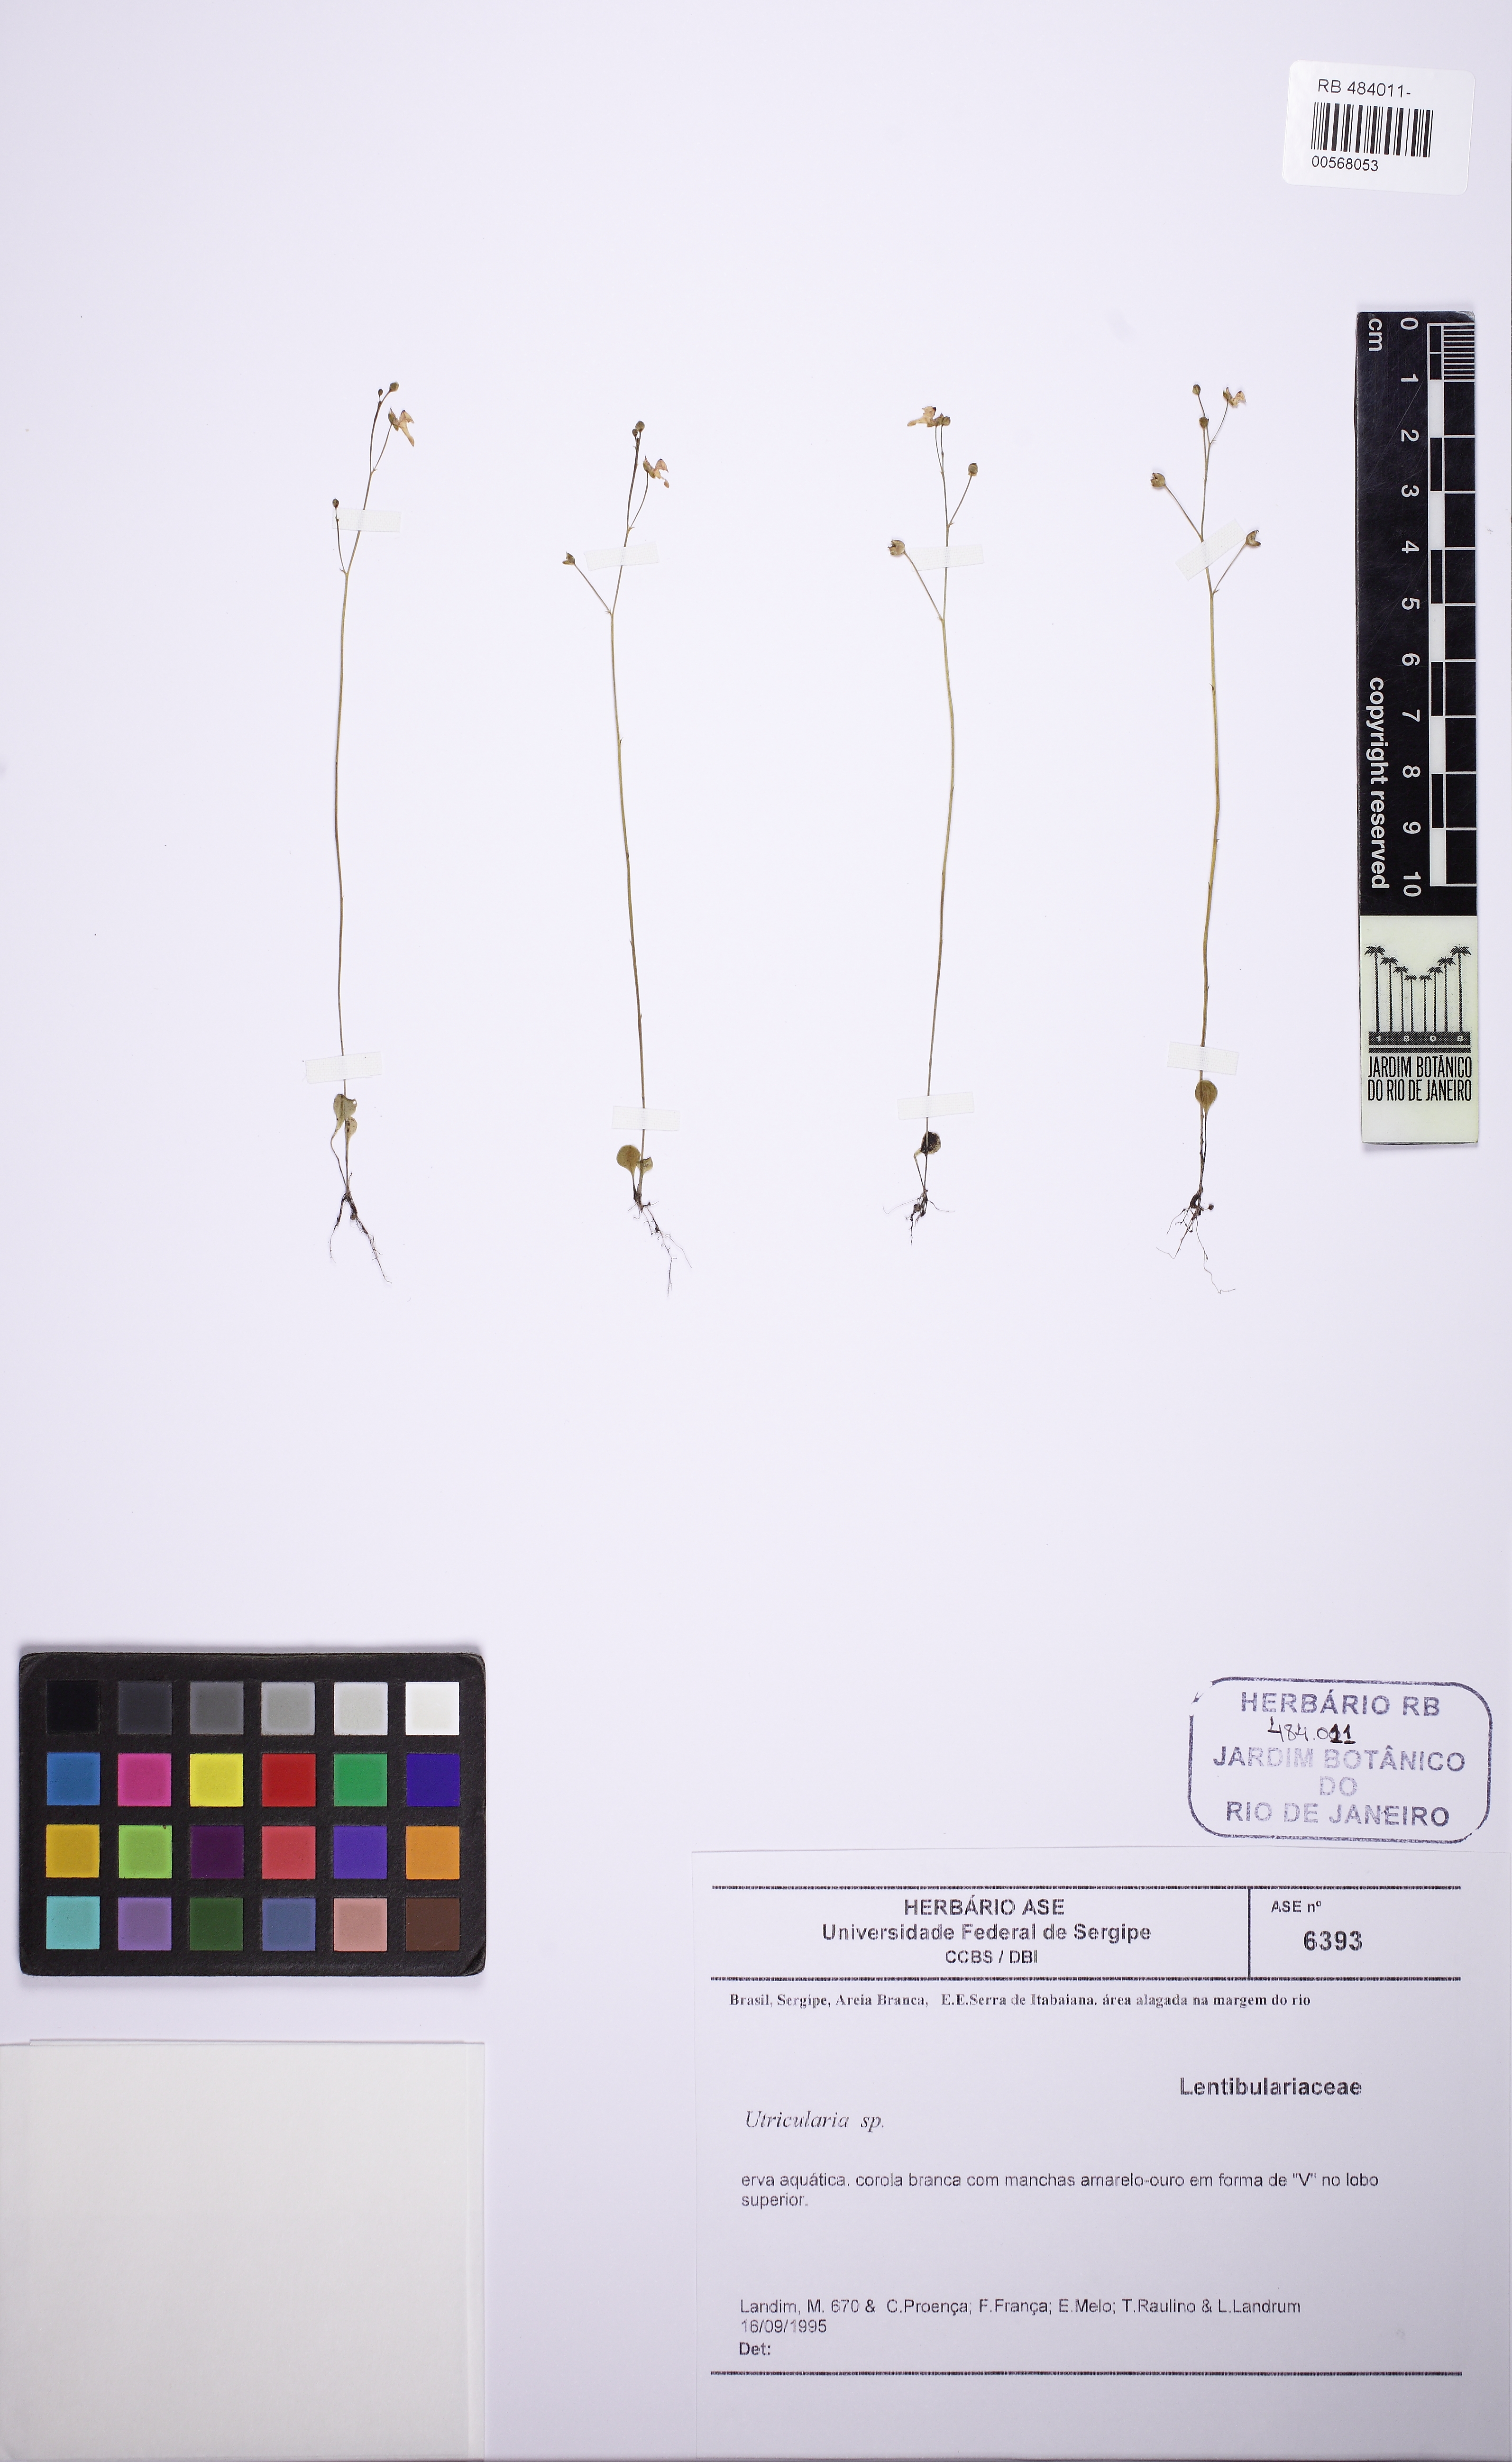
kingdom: Plantae
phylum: Tracheophyta
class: Magnoliopsida
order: Lamiales
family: Lentibulariaceae
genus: Utricularia
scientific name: Utricularia amethystina
